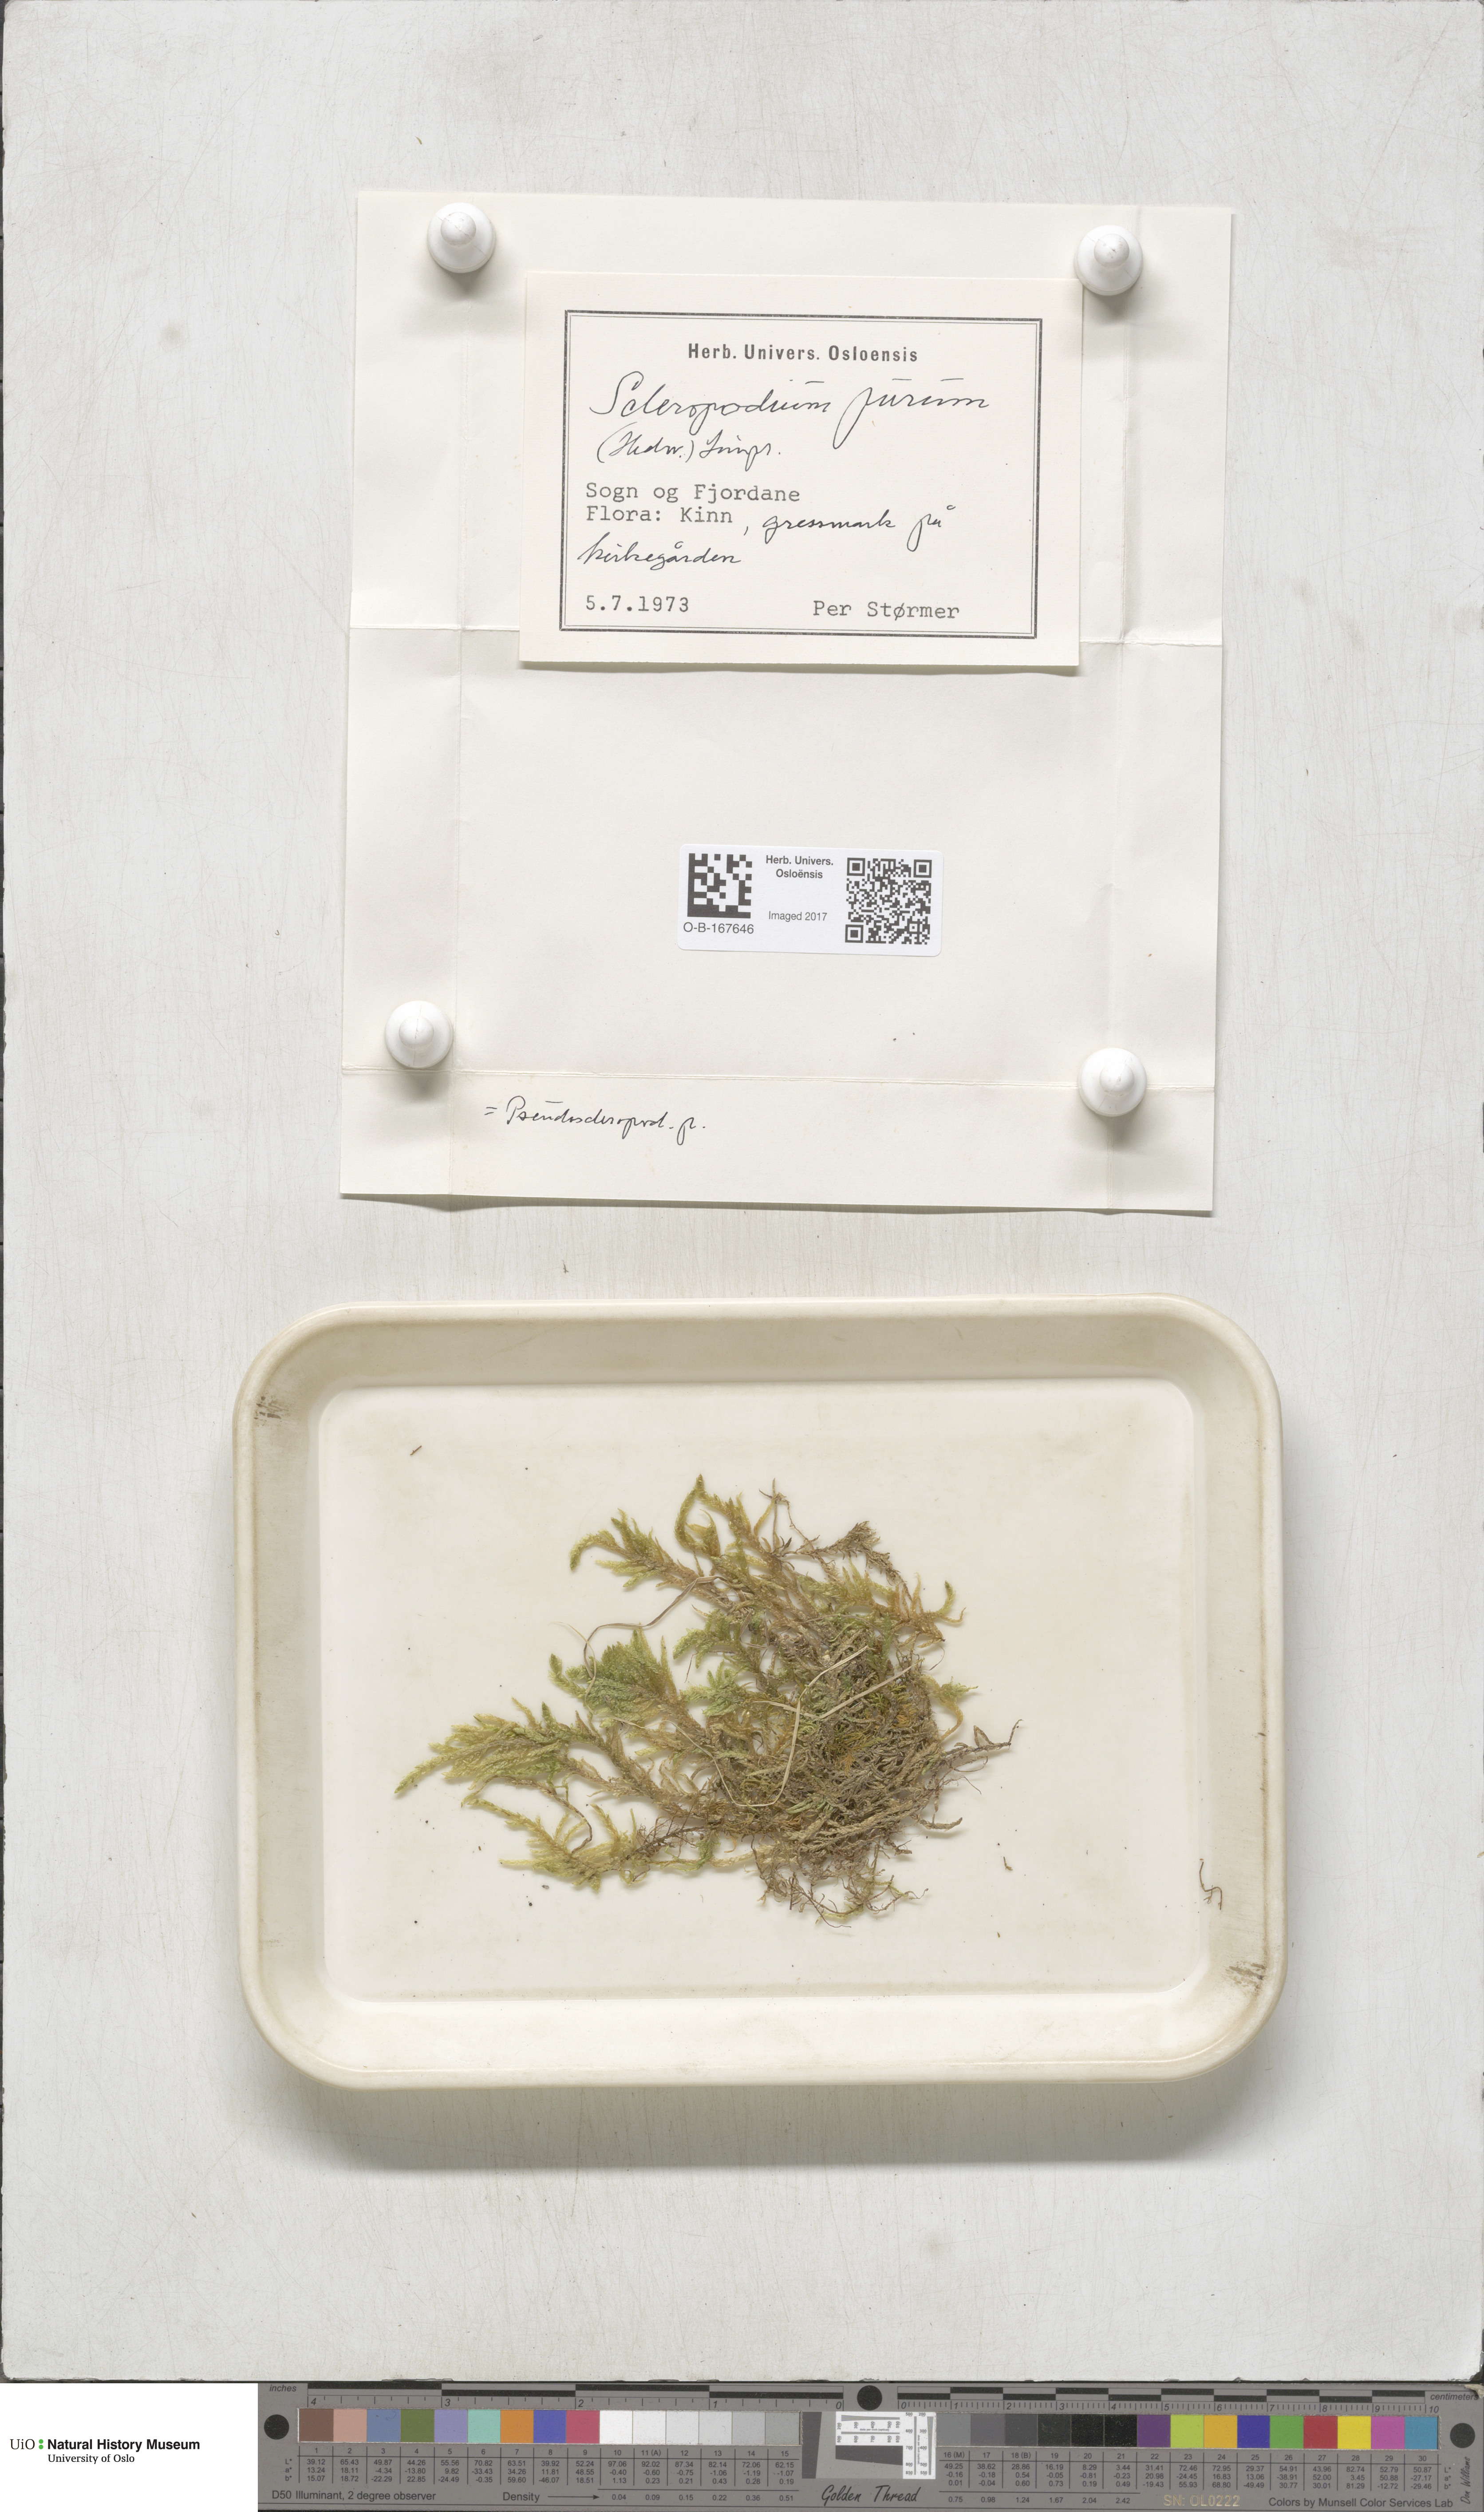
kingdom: Plantae
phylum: Bryophyta
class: Bryopsida
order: Hypnales
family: Brachytheciaceae
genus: Pseudoscleropodium
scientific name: Pseudoscleropodium purum
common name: Neat feather-moss
